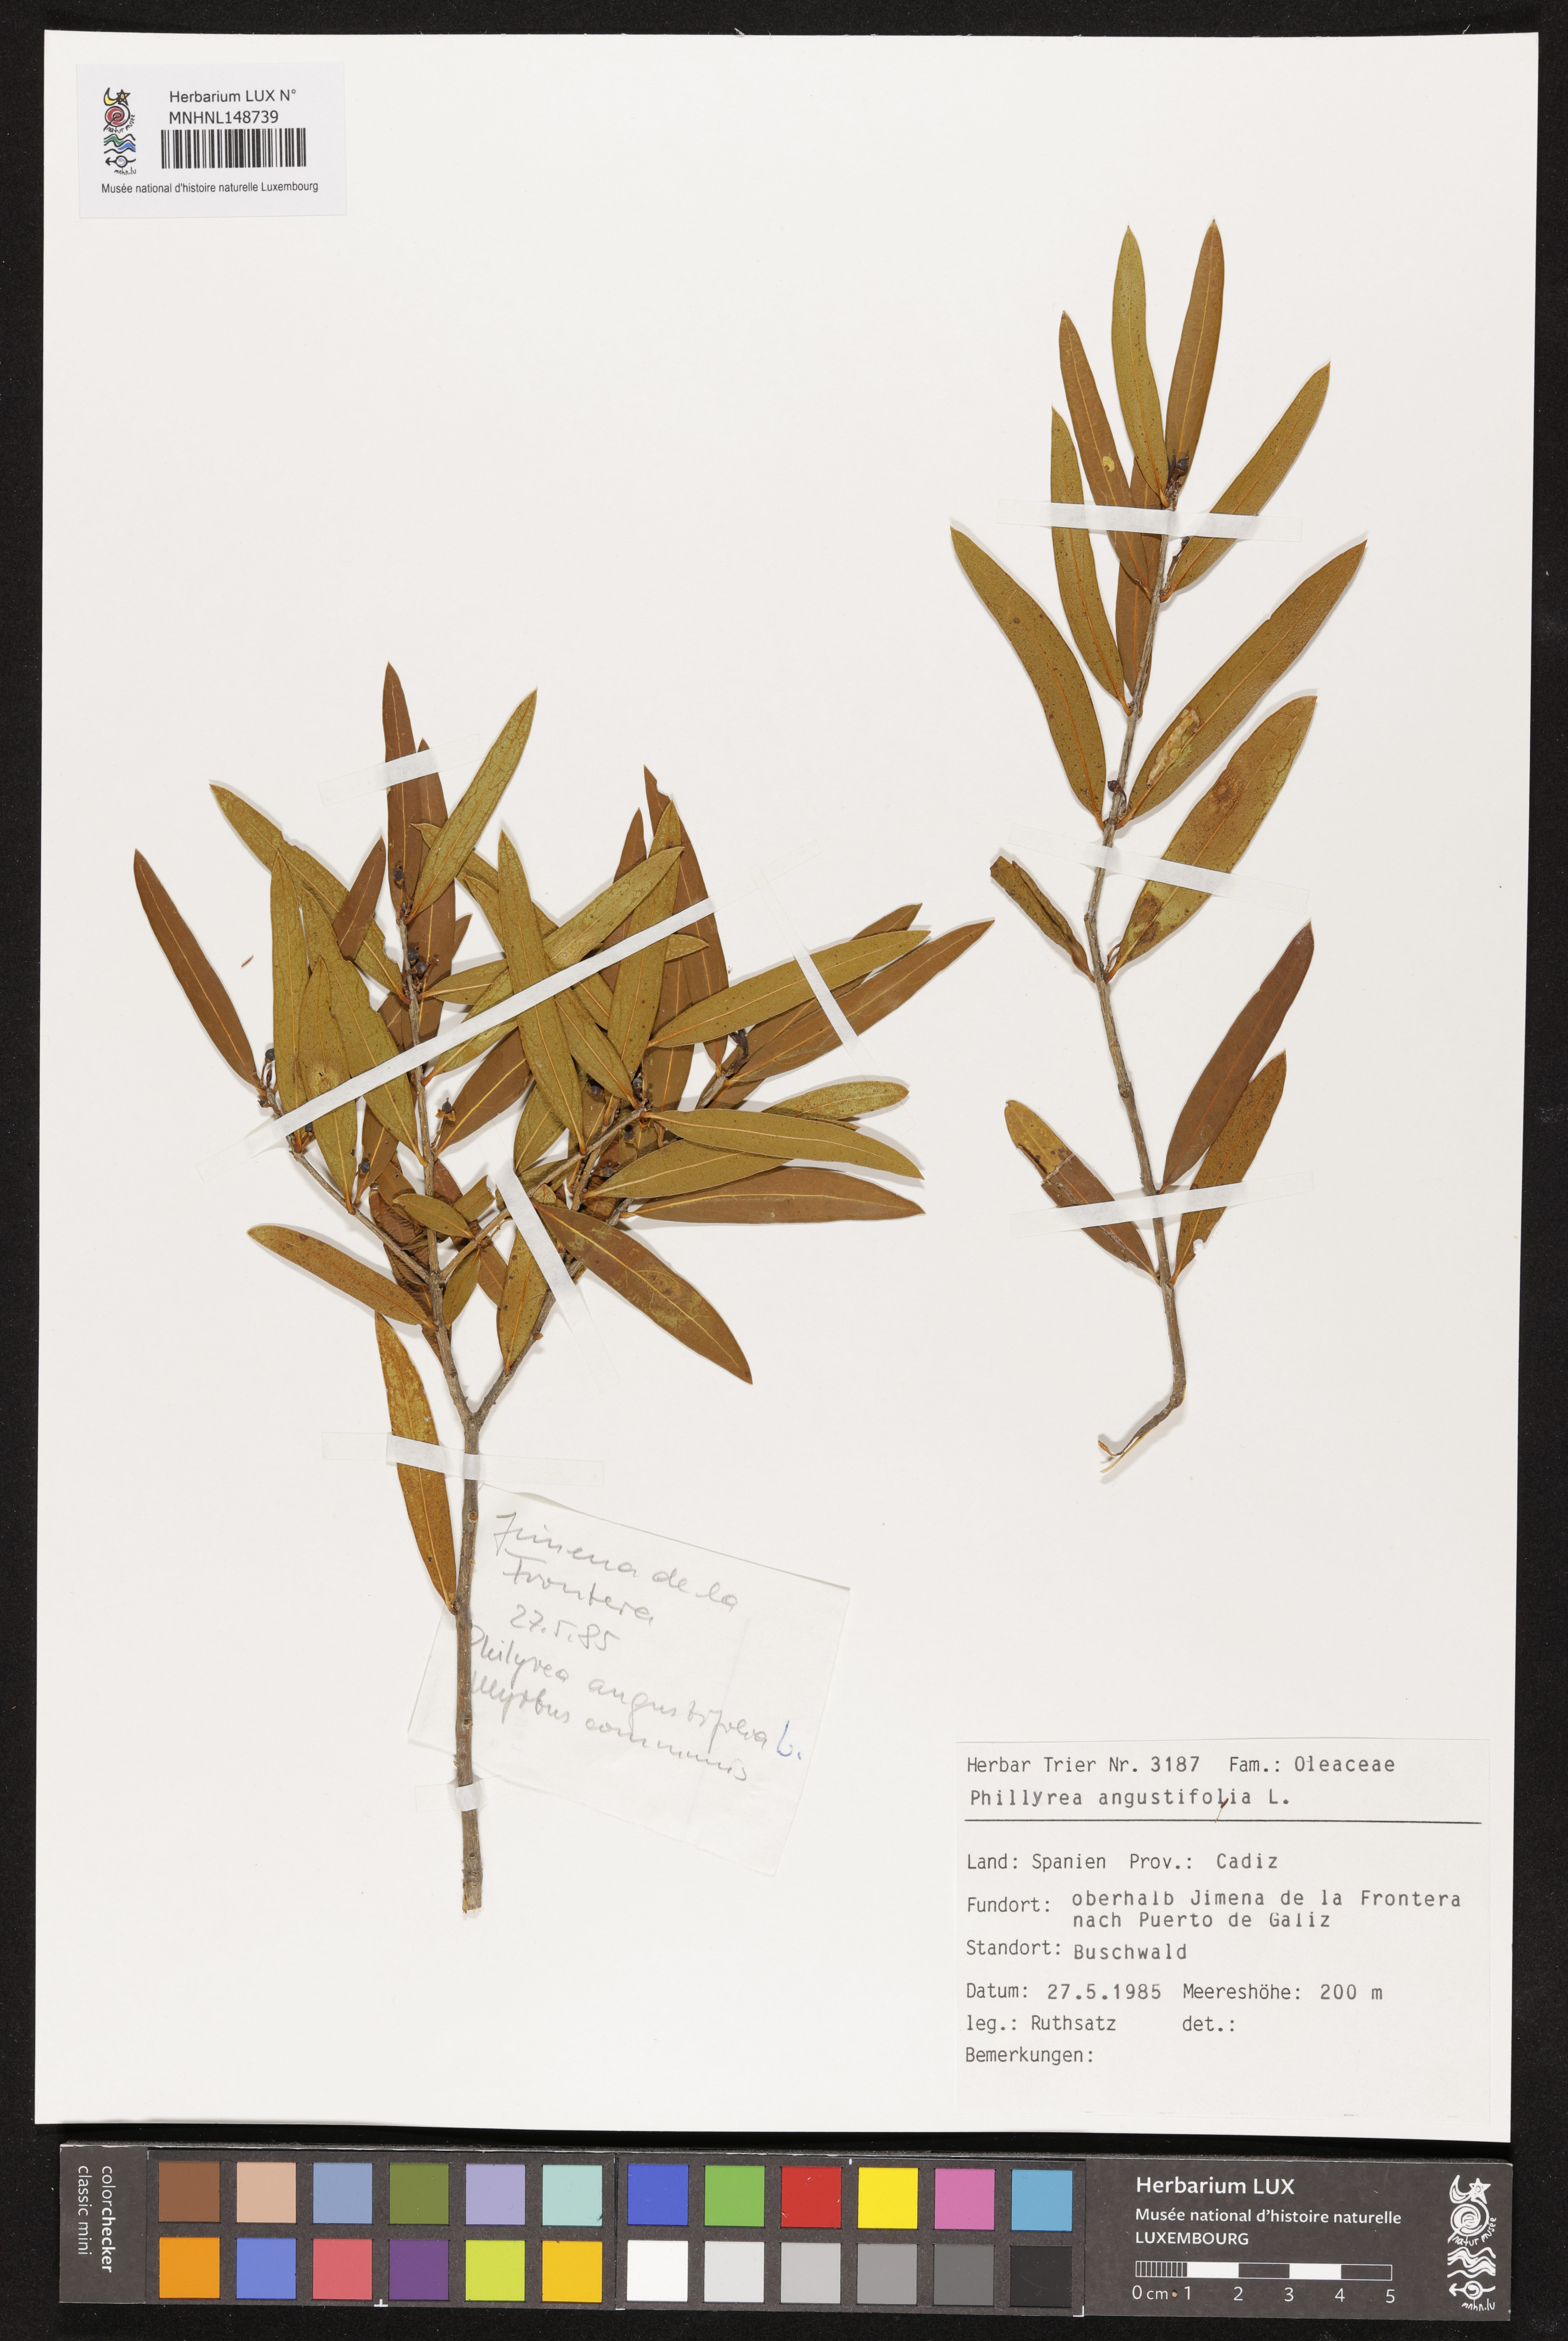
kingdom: Plantae
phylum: Tracheophyta
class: Magnoliopsida
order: Lamiales
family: Oleaceae
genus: Phillyrea
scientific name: Phillyrea angustifolia
